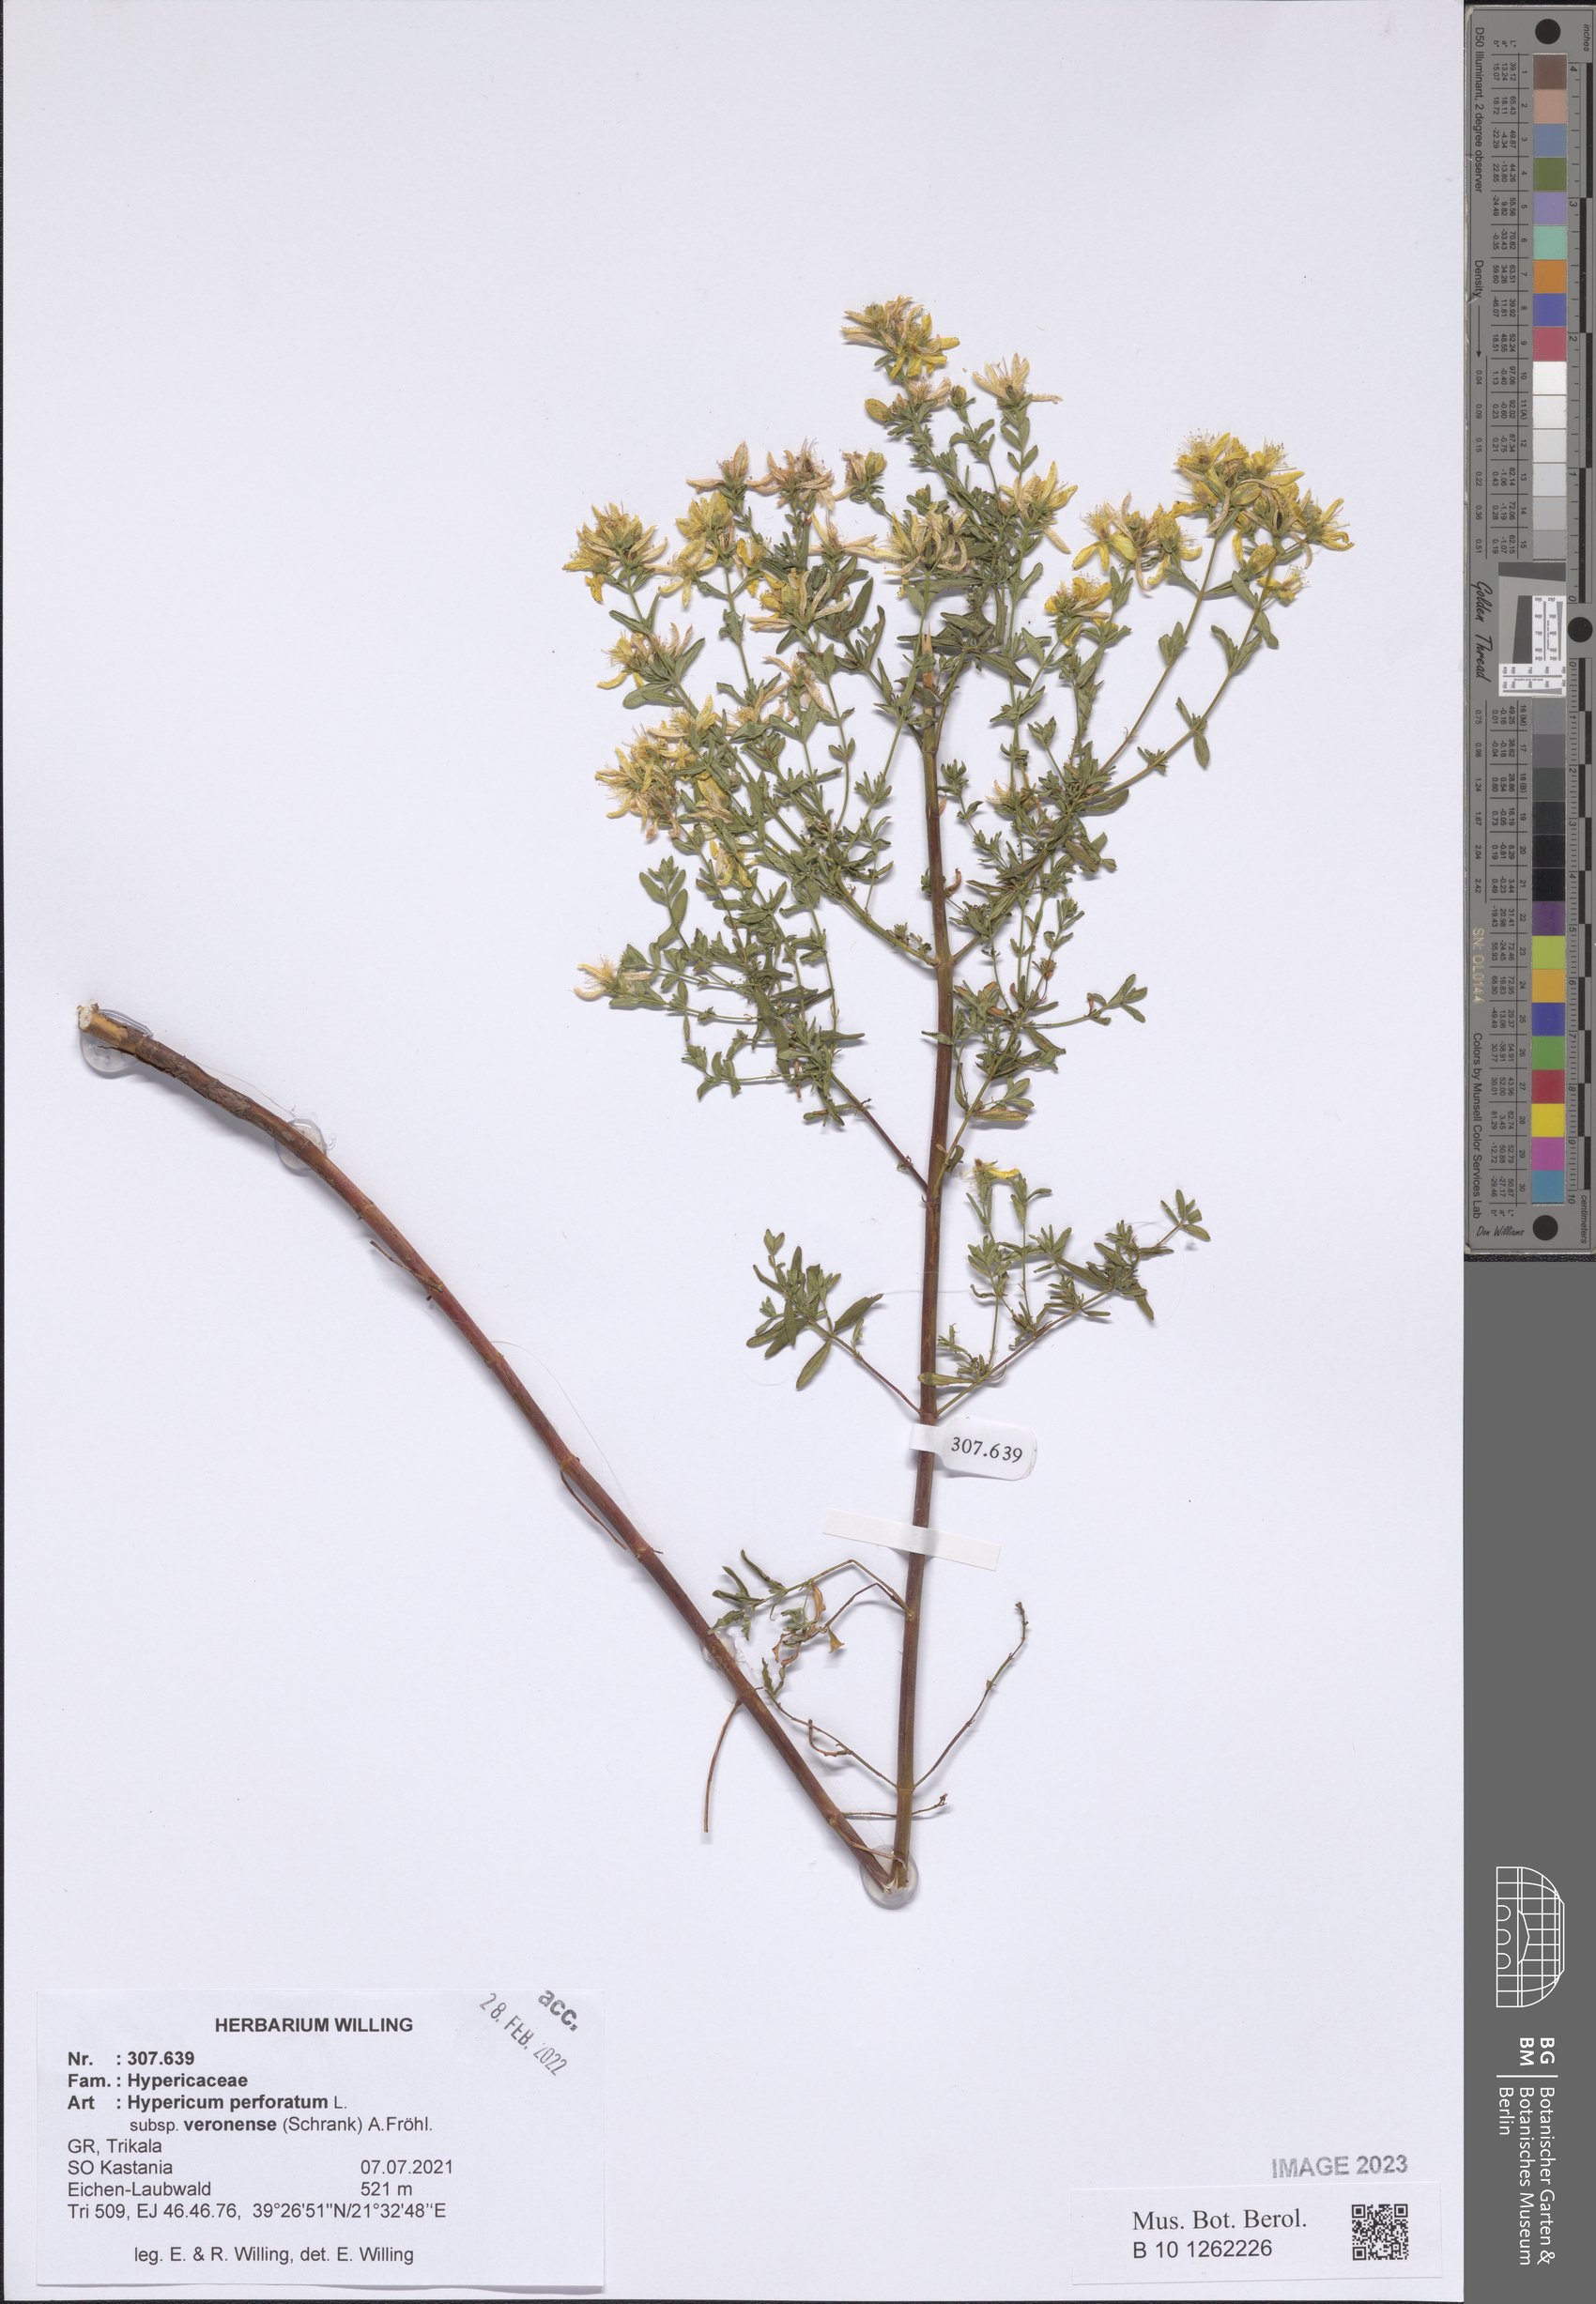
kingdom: Plantae
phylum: Tracheophyta
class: Magnoliopsida
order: Malpighiales
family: Hypericaceae
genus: Hypericum
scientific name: Hypericum veronense
